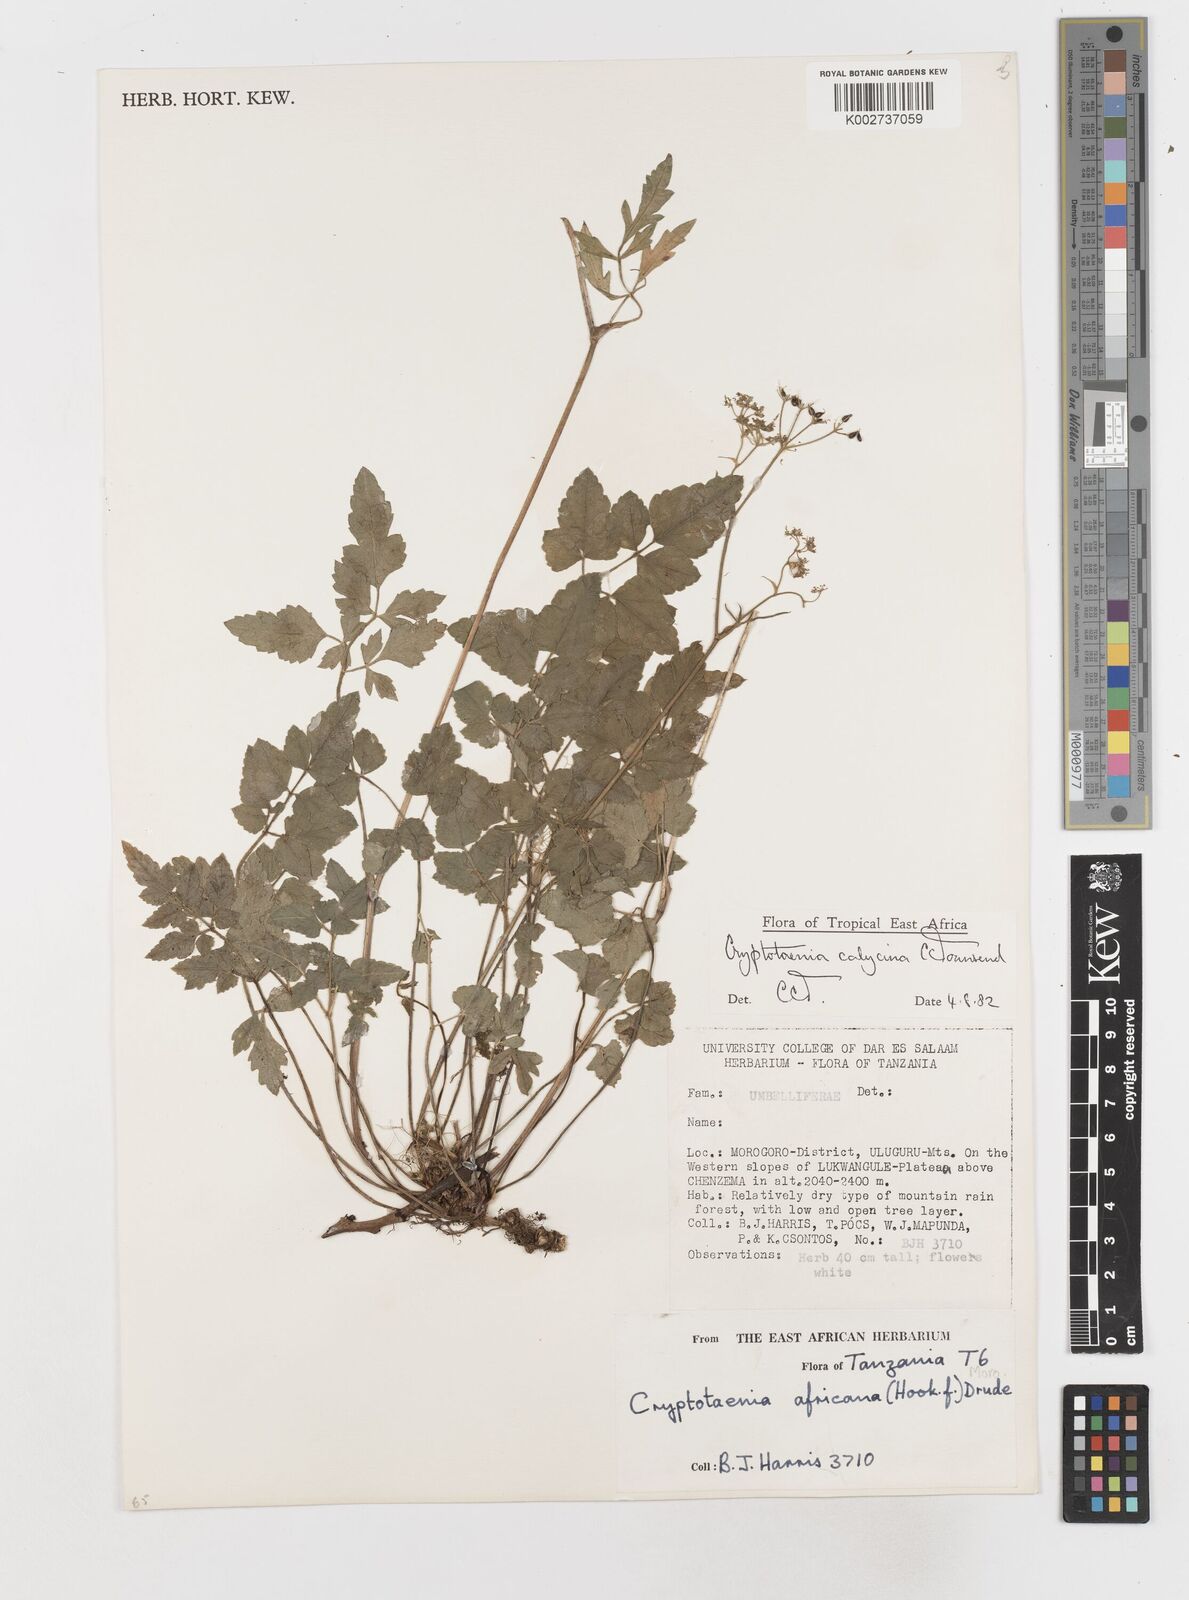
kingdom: Plantae
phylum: Tracheophyta
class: Magnoliopsida
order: Apiales
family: Apiaceae
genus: Cryptotaenia
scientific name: Cryptotaenia calycina
